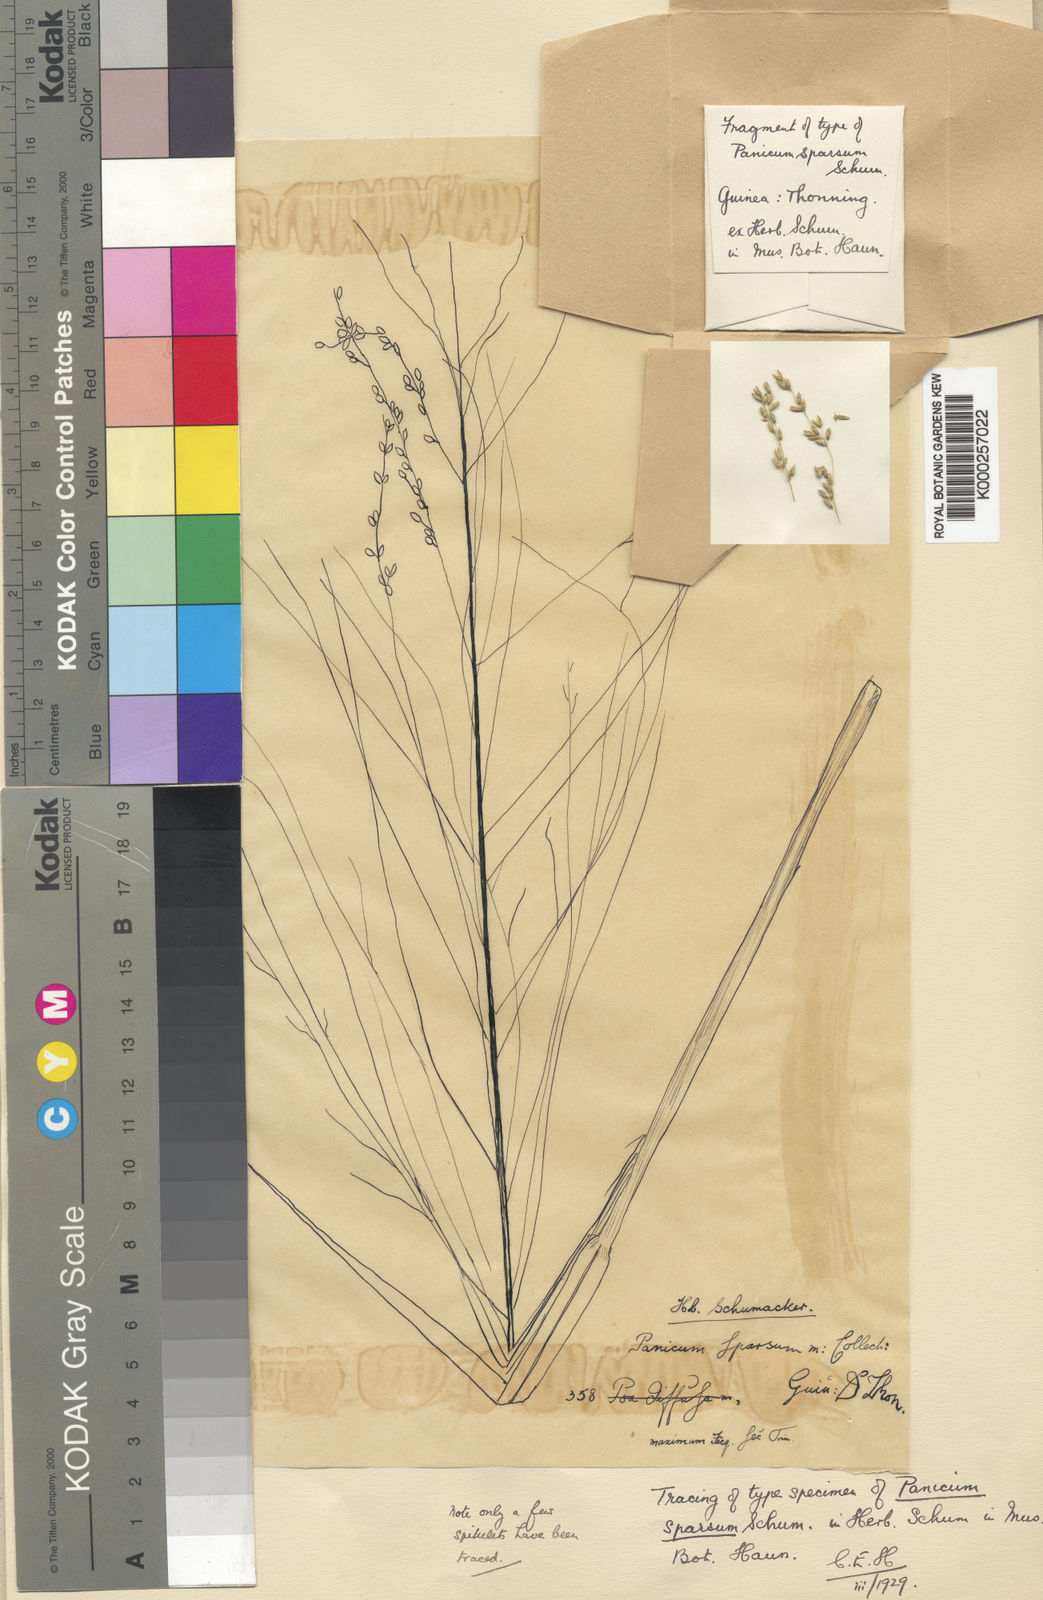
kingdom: Plantae
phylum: Tracheophyta
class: Liliopsida
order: Poales
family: Poaceae
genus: Megathyrsus
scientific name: Megathyrsus maximus
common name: Guineagrass
